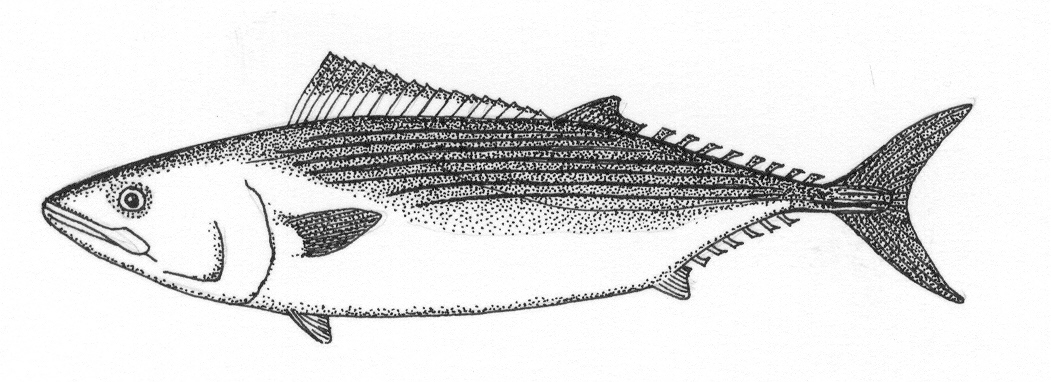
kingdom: Animalia
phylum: Chordata
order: Perciformes
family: Scombridae
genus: Sarda
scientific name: Sarda orientalis
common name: Striped bonito
